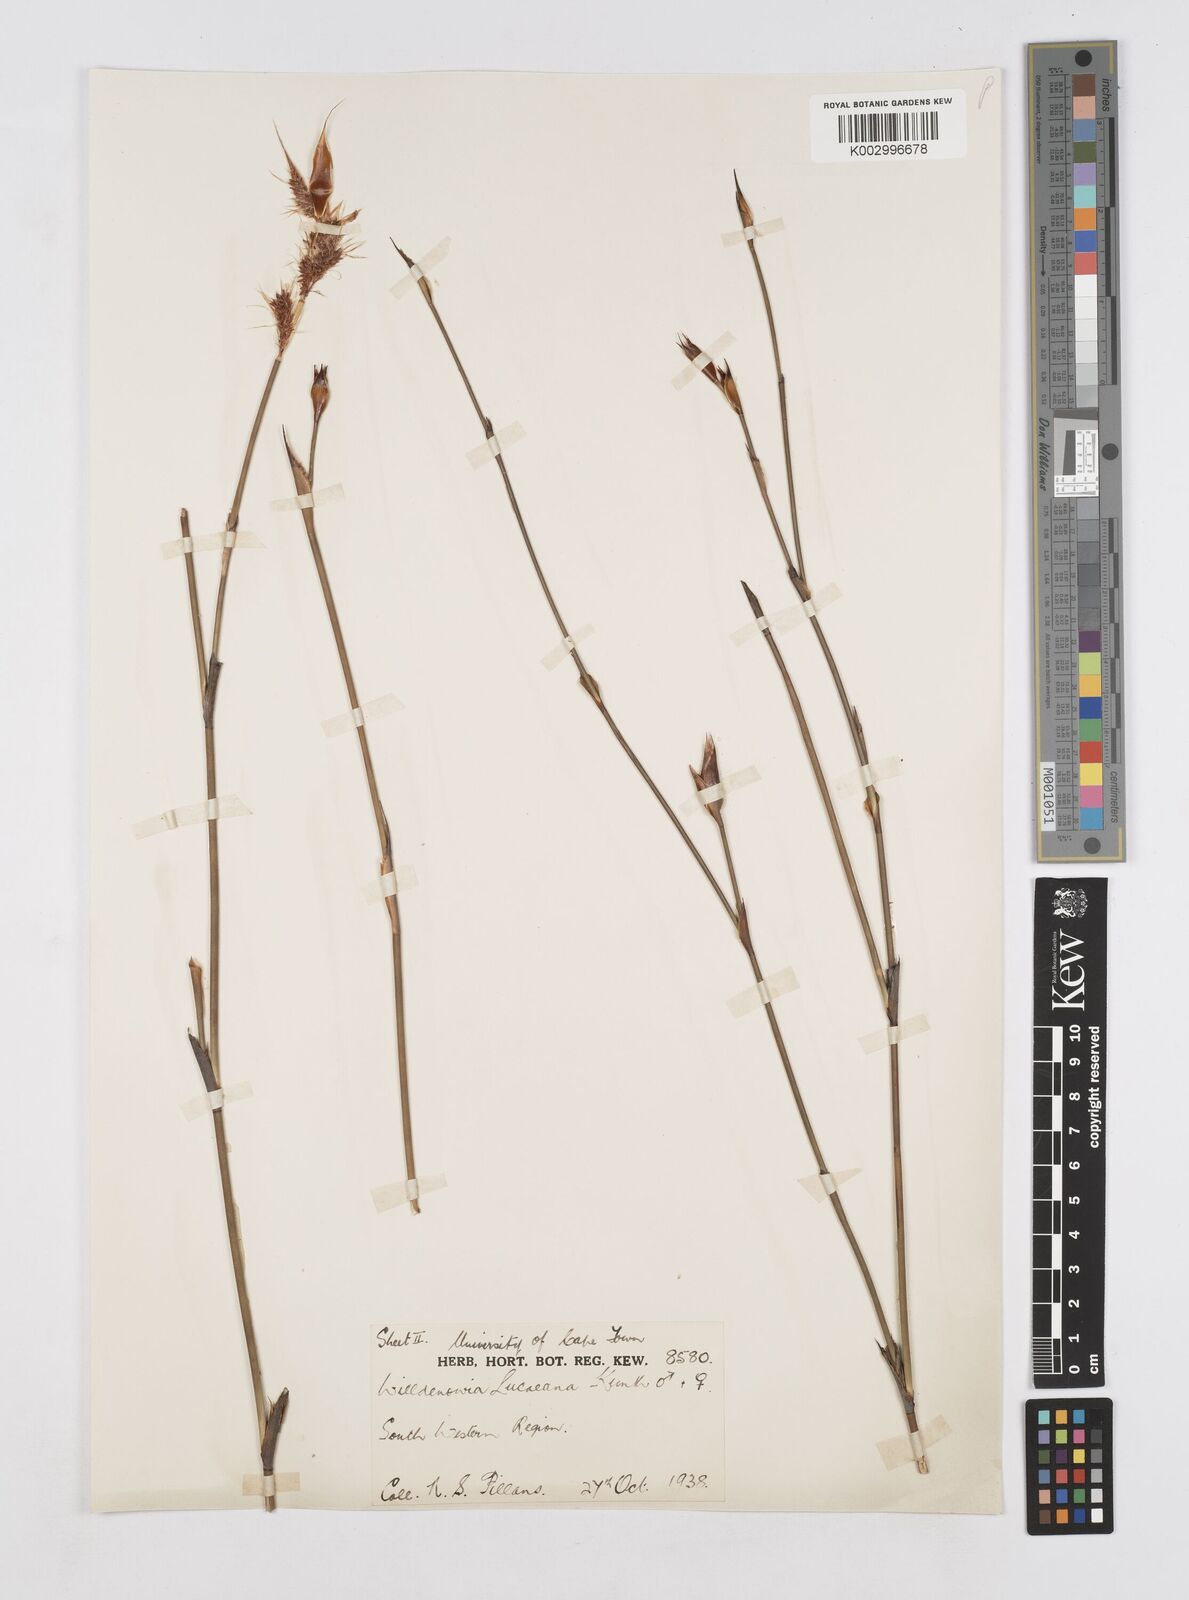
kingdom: Plantae
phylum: Tracheophyta
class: Liliopsida
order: Poales
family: Restionaceae
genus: Willdenowia
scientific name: Willdenowia glomerata
